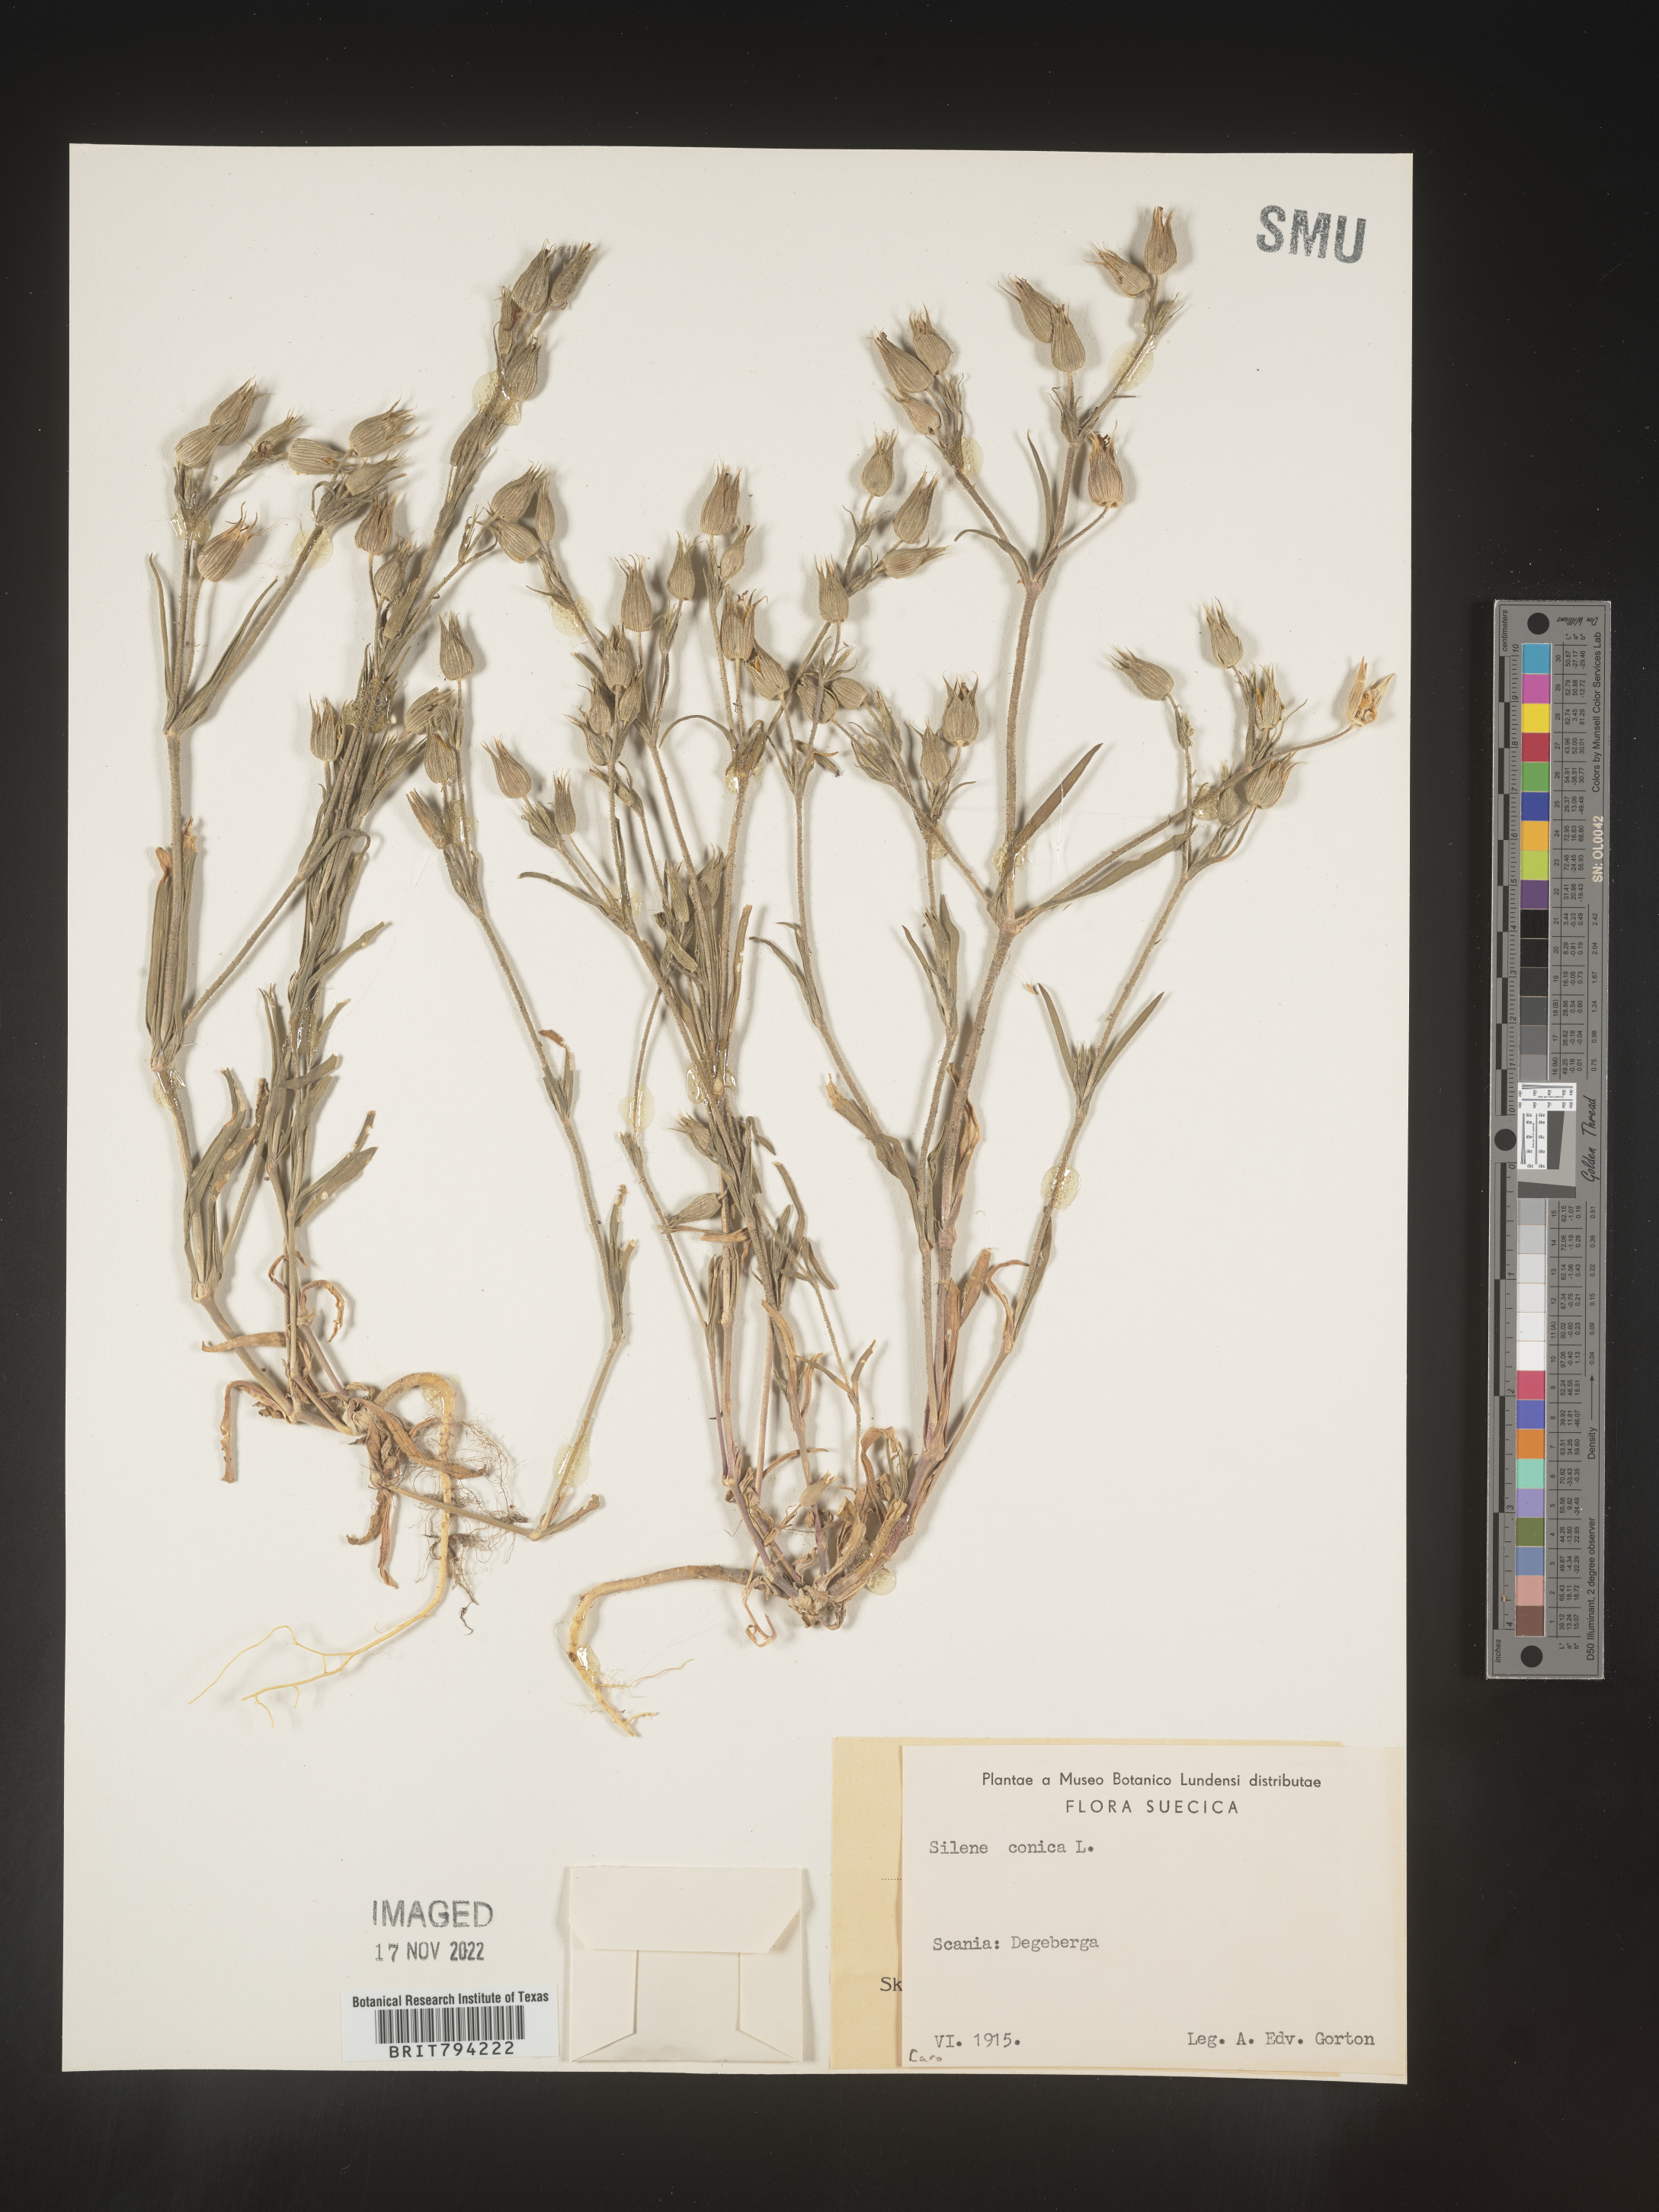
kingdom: Plantae
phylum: Tracheophyta
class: Magnoliopsida
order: Caryophyllales
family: Caryophyllaceae
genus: Silene
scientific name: Silene conica
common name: Sand catchfly
